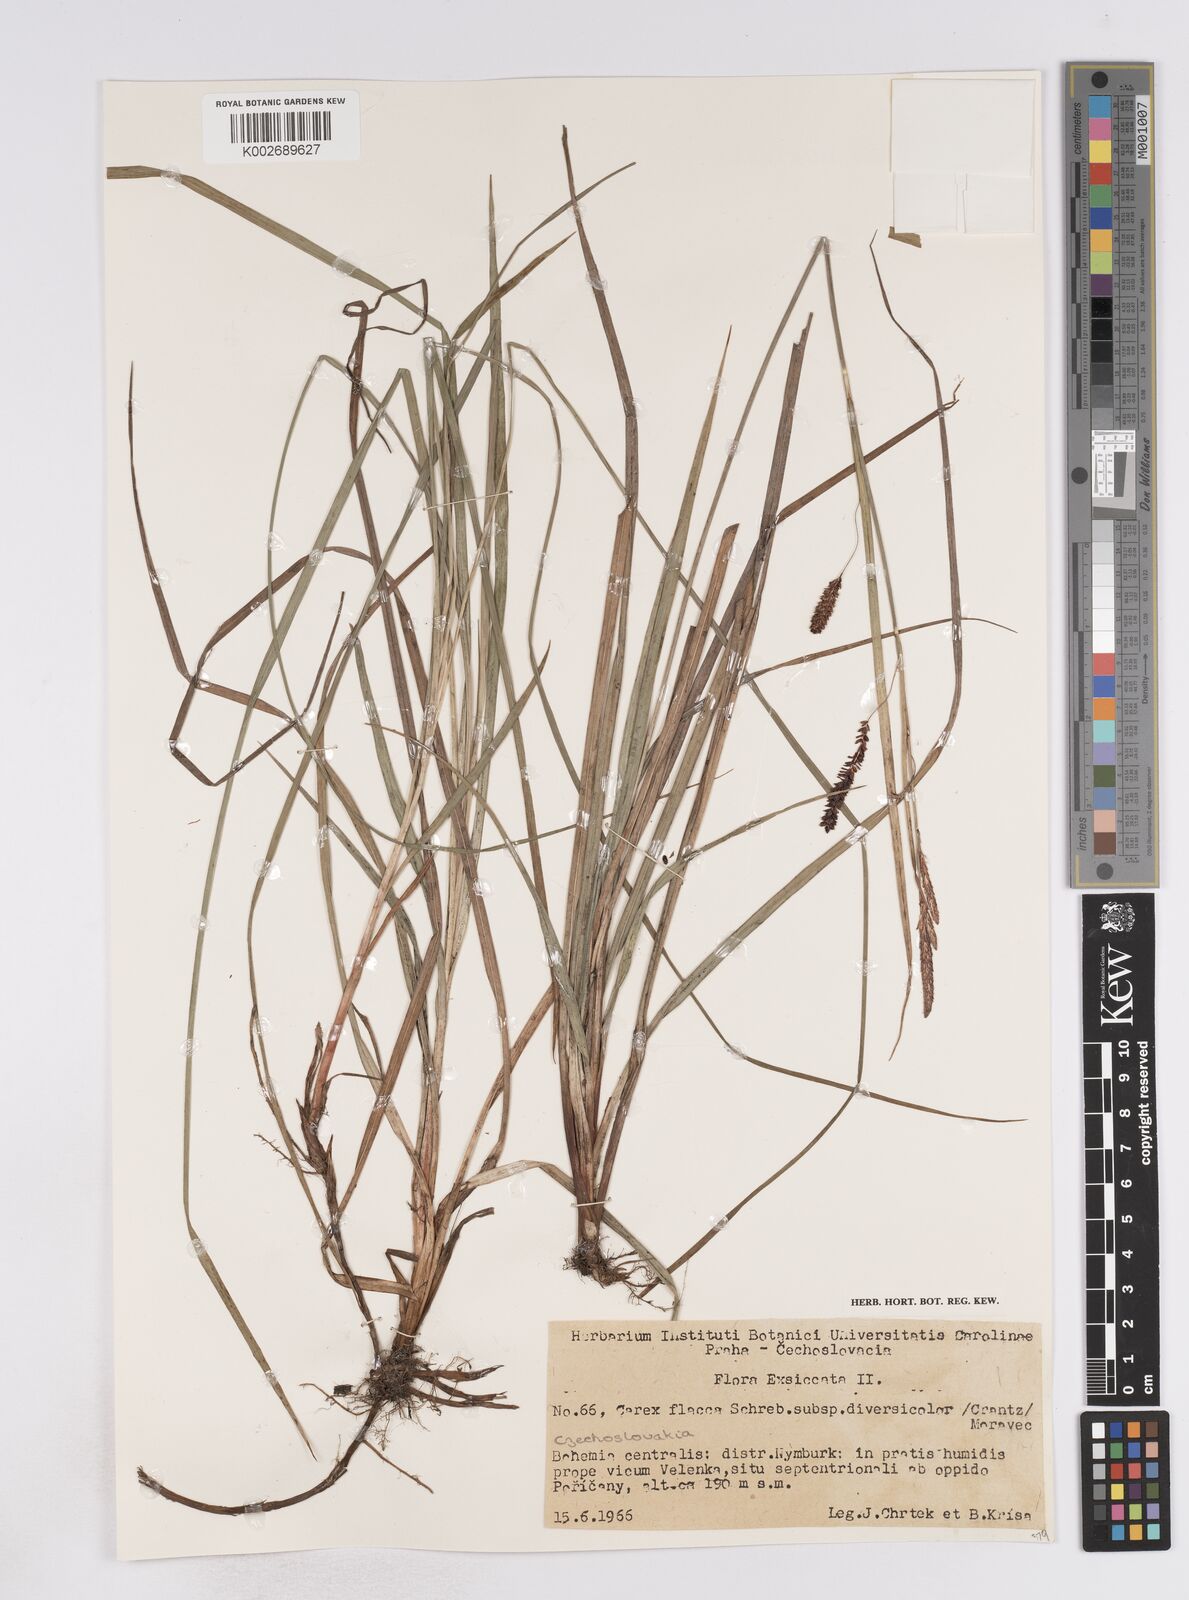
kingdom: Plantae
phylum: Tracheophyta
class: Liliopsida
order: Poales
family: Cyperaceae
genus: Carex
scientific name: Carex flacca
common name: Glaucous sedge
